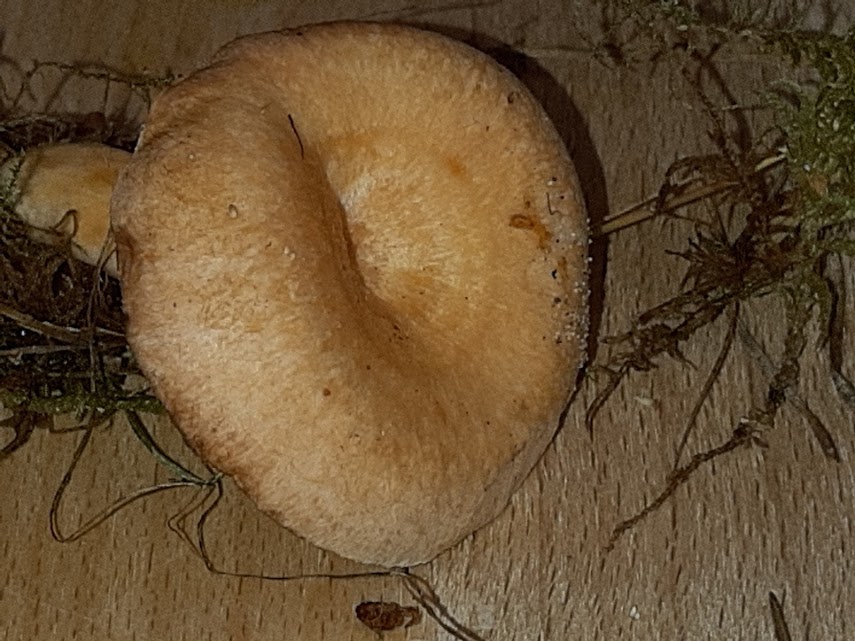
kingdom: Fungi
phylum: Basidiomycota
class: Agaricomycetes
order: Russulales
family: Russulaceae
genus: Lactarius
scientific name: Lactarius
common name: mælkehat
